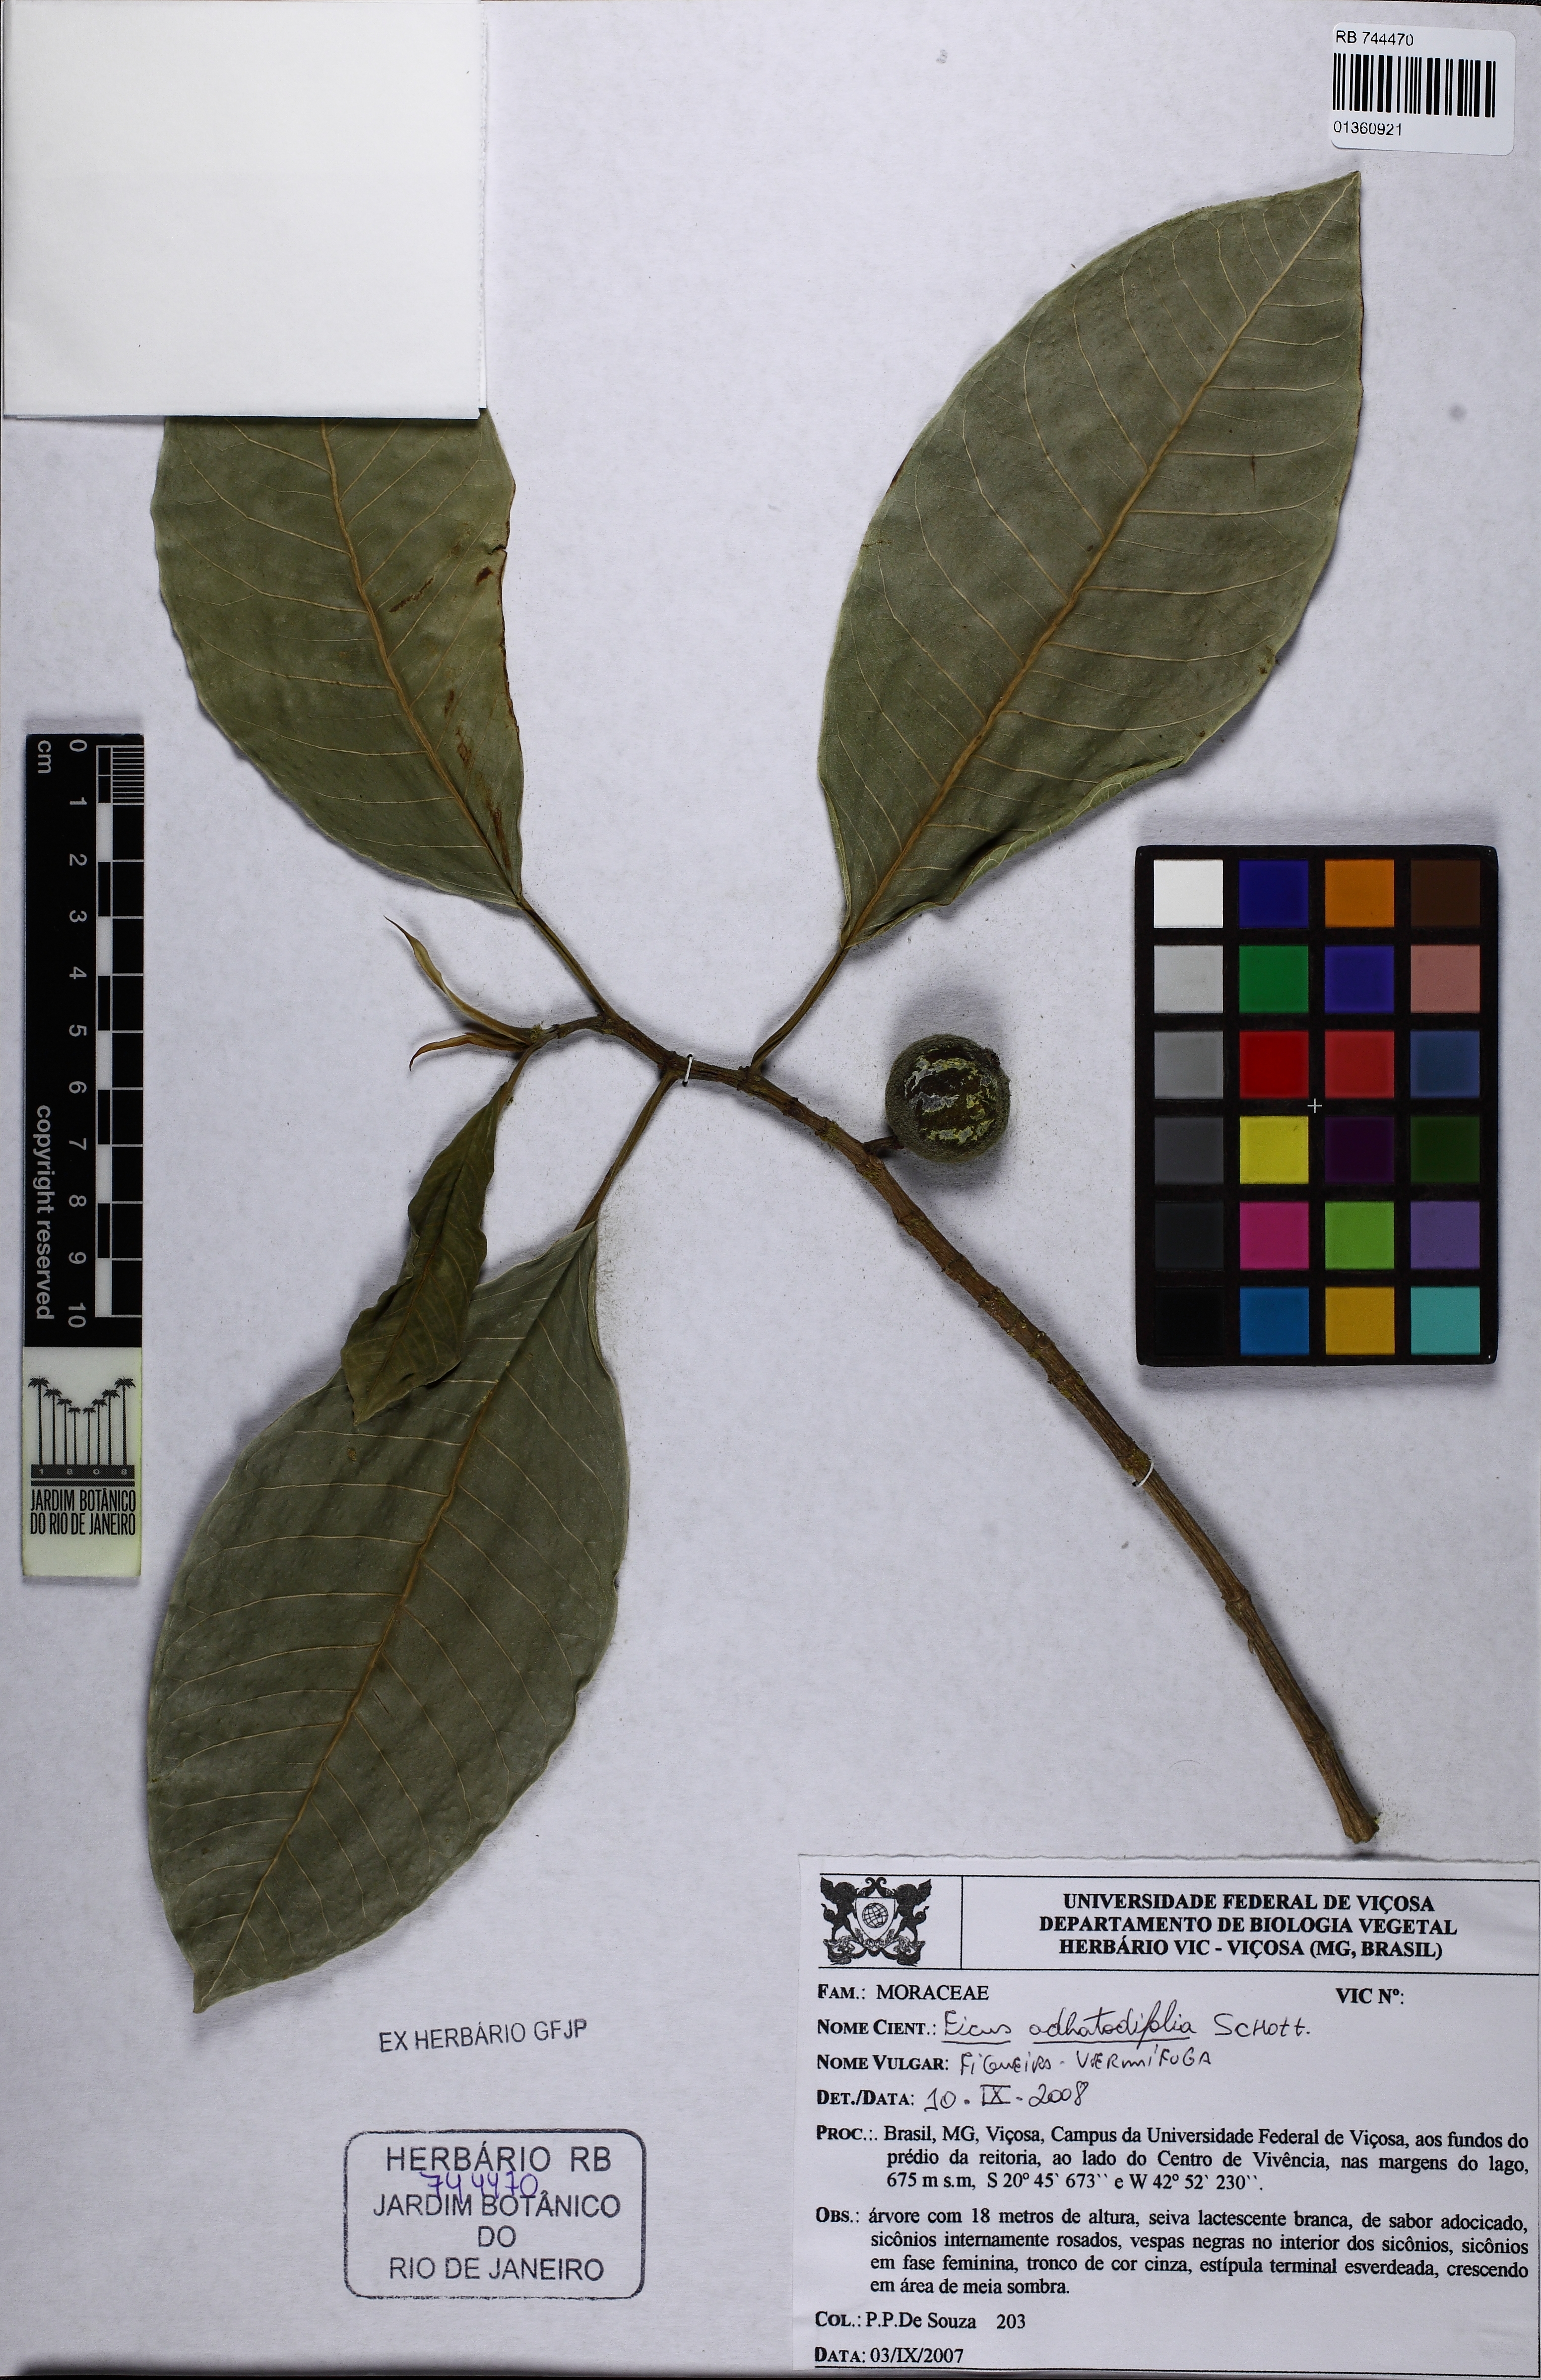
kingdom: Plantae
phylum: Tracheophyta
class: Magnoliopsida
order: Rosales
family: Moraceae
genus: Ficus
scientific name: Ficus adhatodifolia
